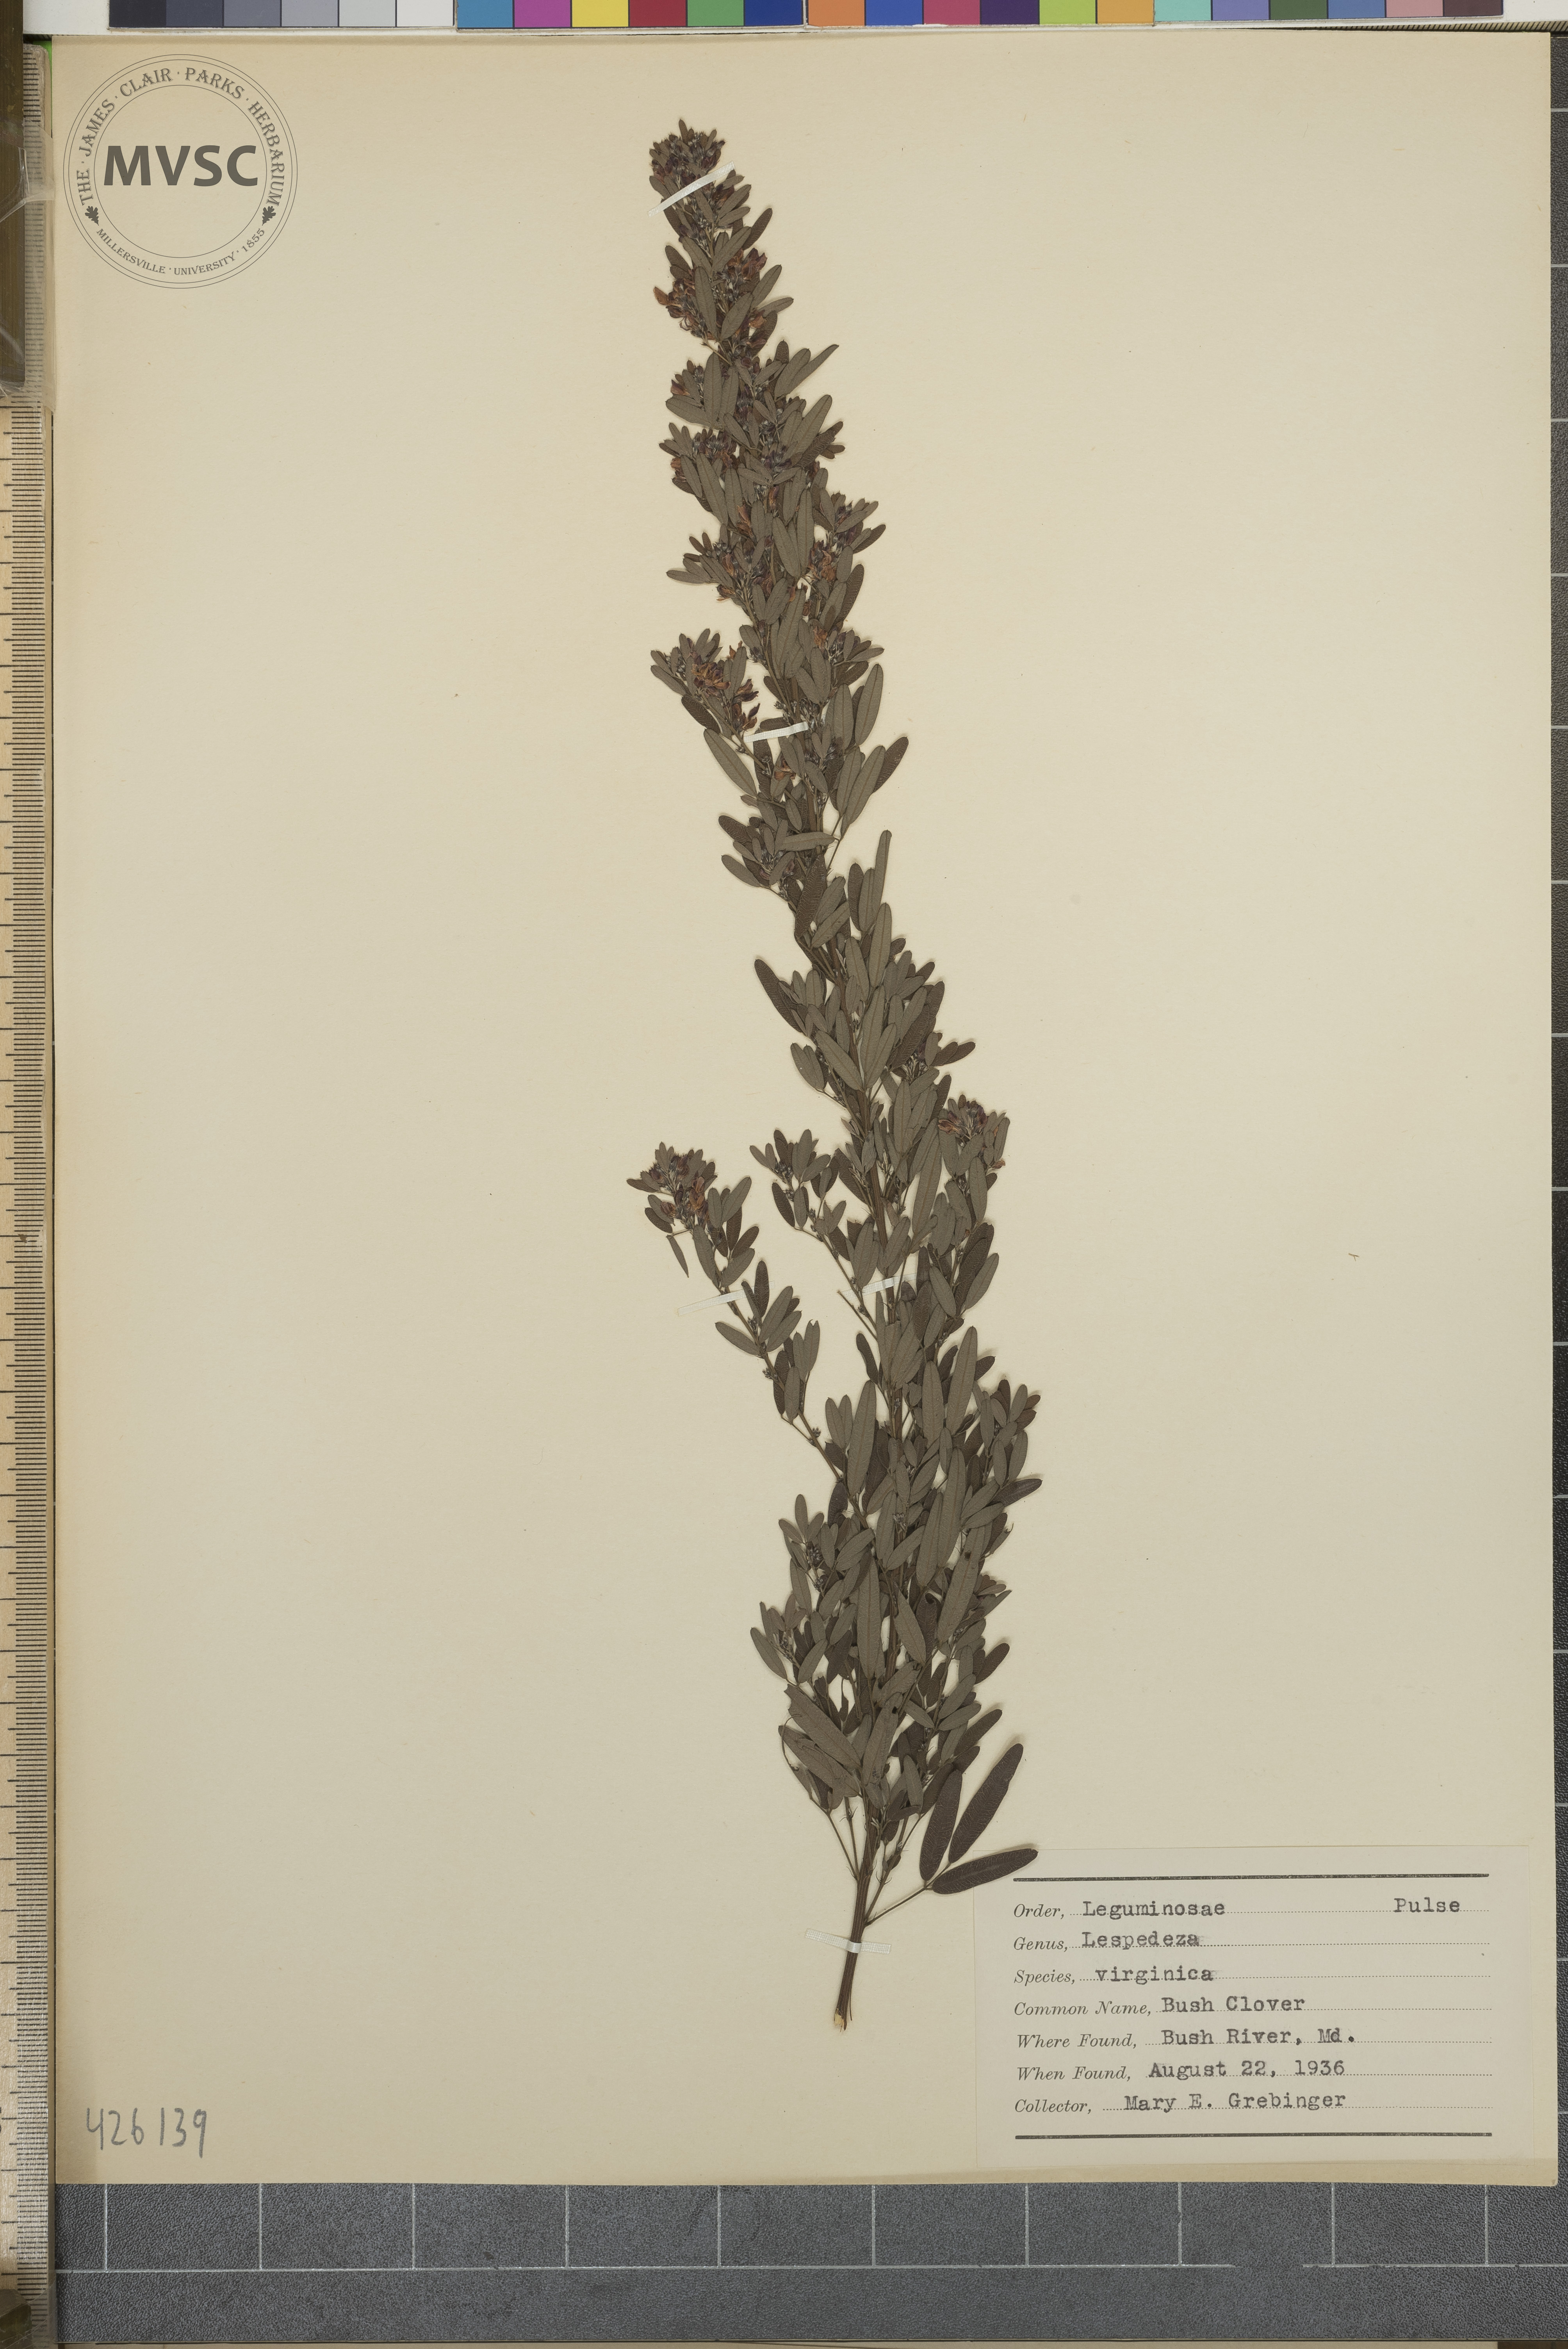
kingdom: Plantae
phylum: Tracheophyta
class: Magnoliopsida
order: Fabales
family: Fabaceae
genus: Lespedeza
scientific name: Lespedeza virginica
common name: Bush clover
